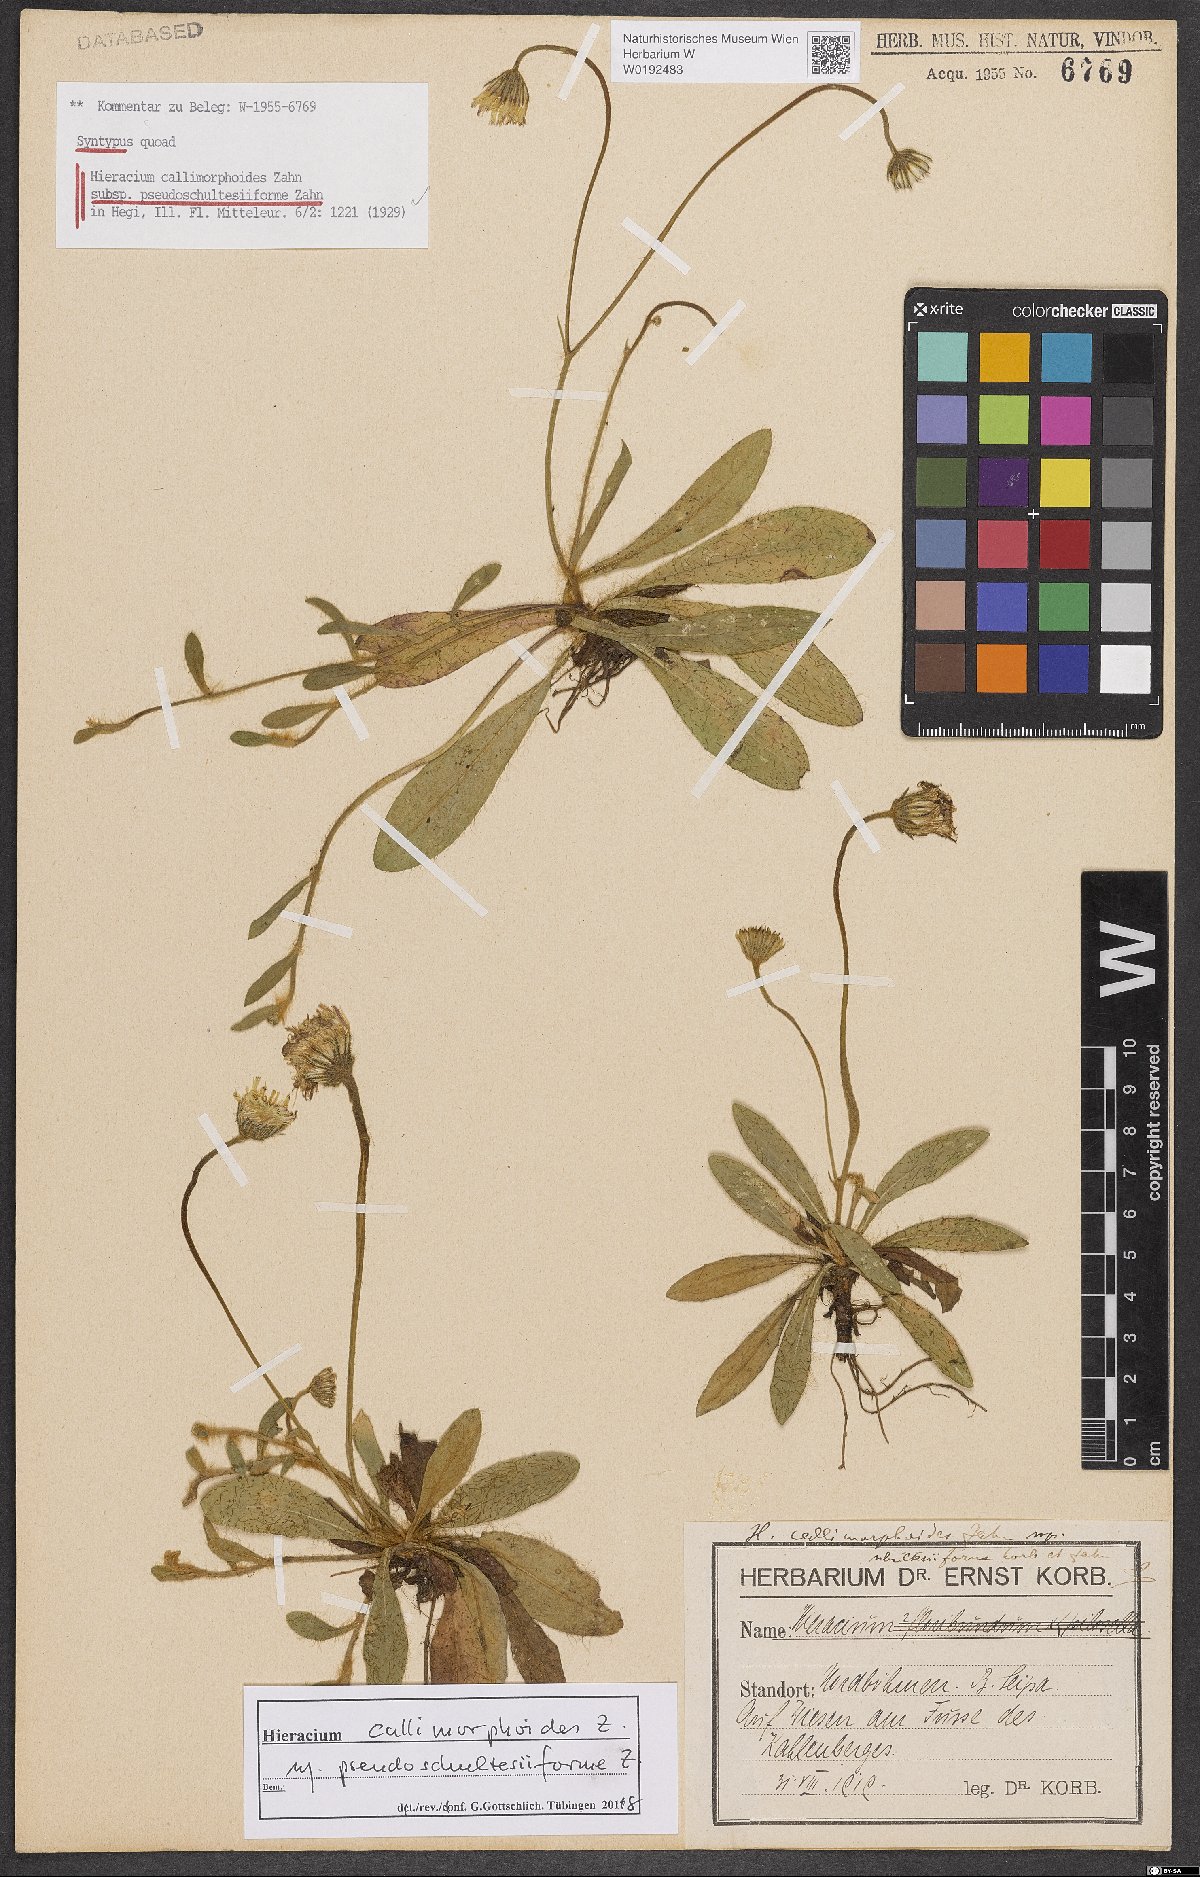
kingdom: Plantae
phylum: Tracheophyta
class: Magnoliopsida
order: Asterales
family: Asteraceae
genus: Pilosella
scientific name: Pilosella piloselliflora
